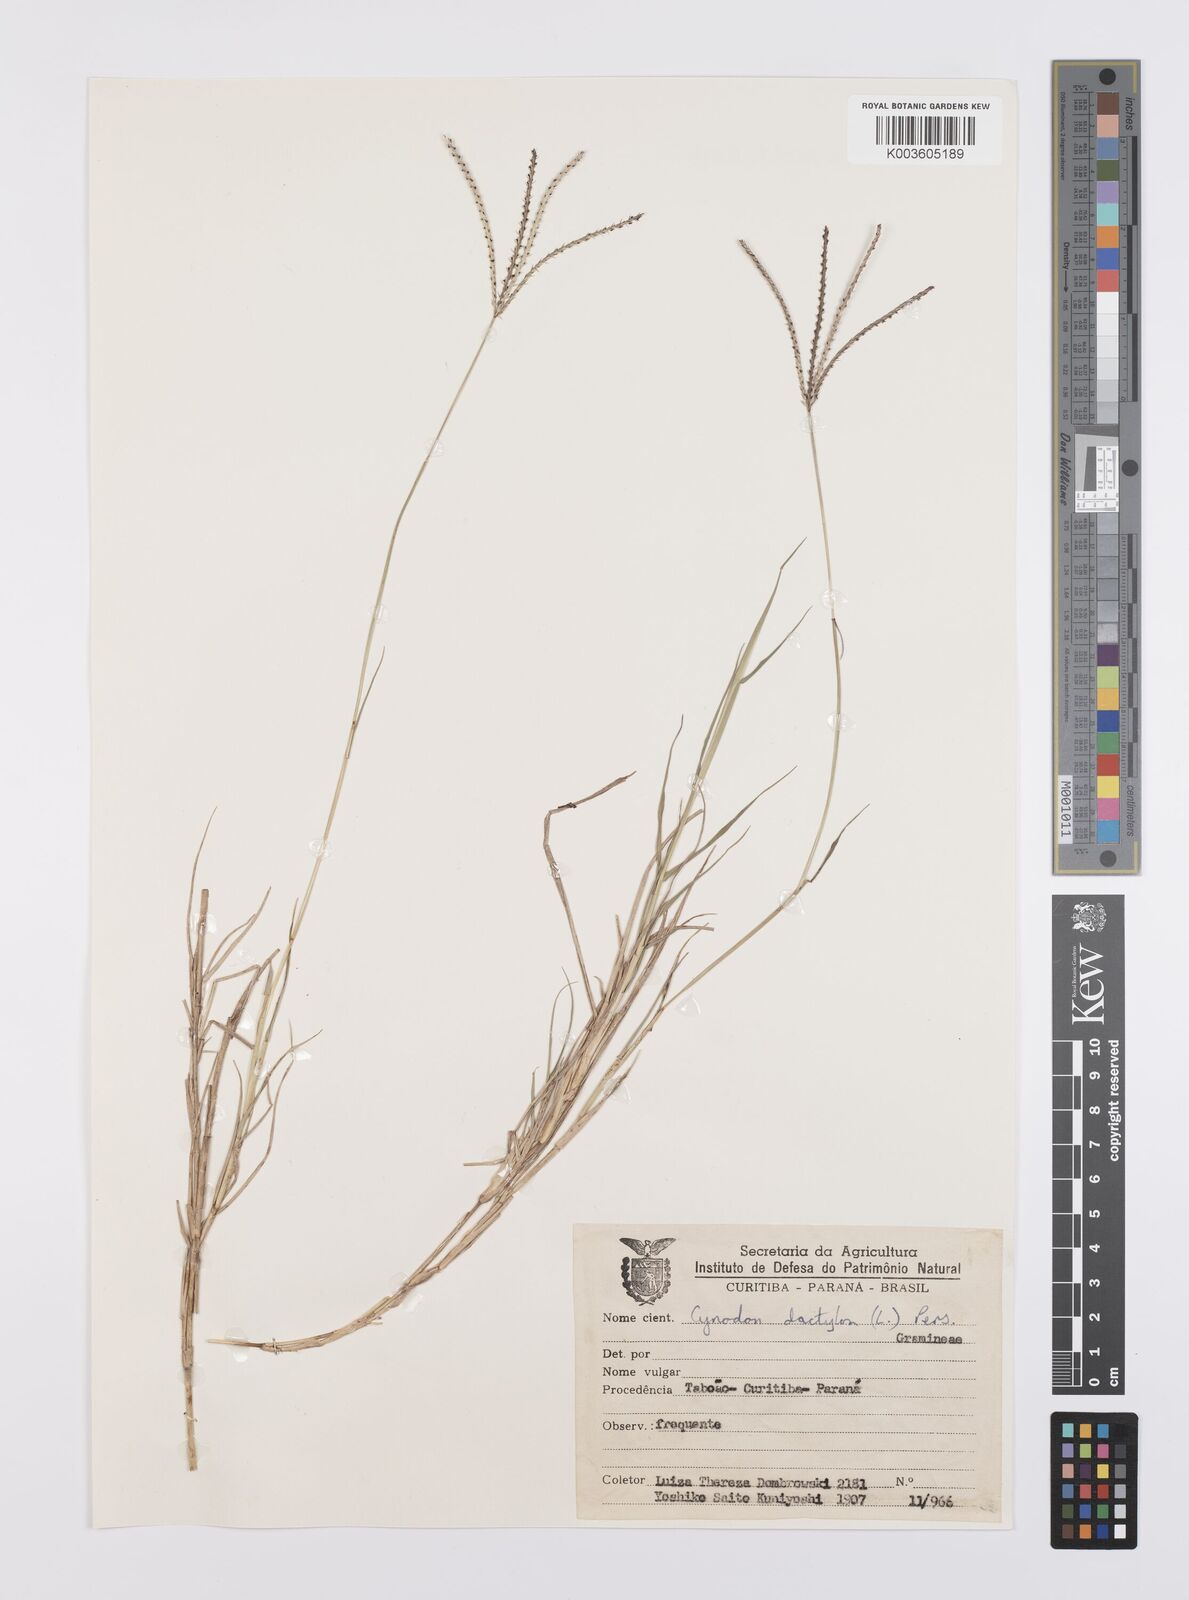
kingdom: Plantae
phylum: Tracheophyta
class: Liliopsida
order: Poales
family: Poaceae
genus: Cynodon
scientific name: Cynodon dactylon
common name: Bermuda grass
